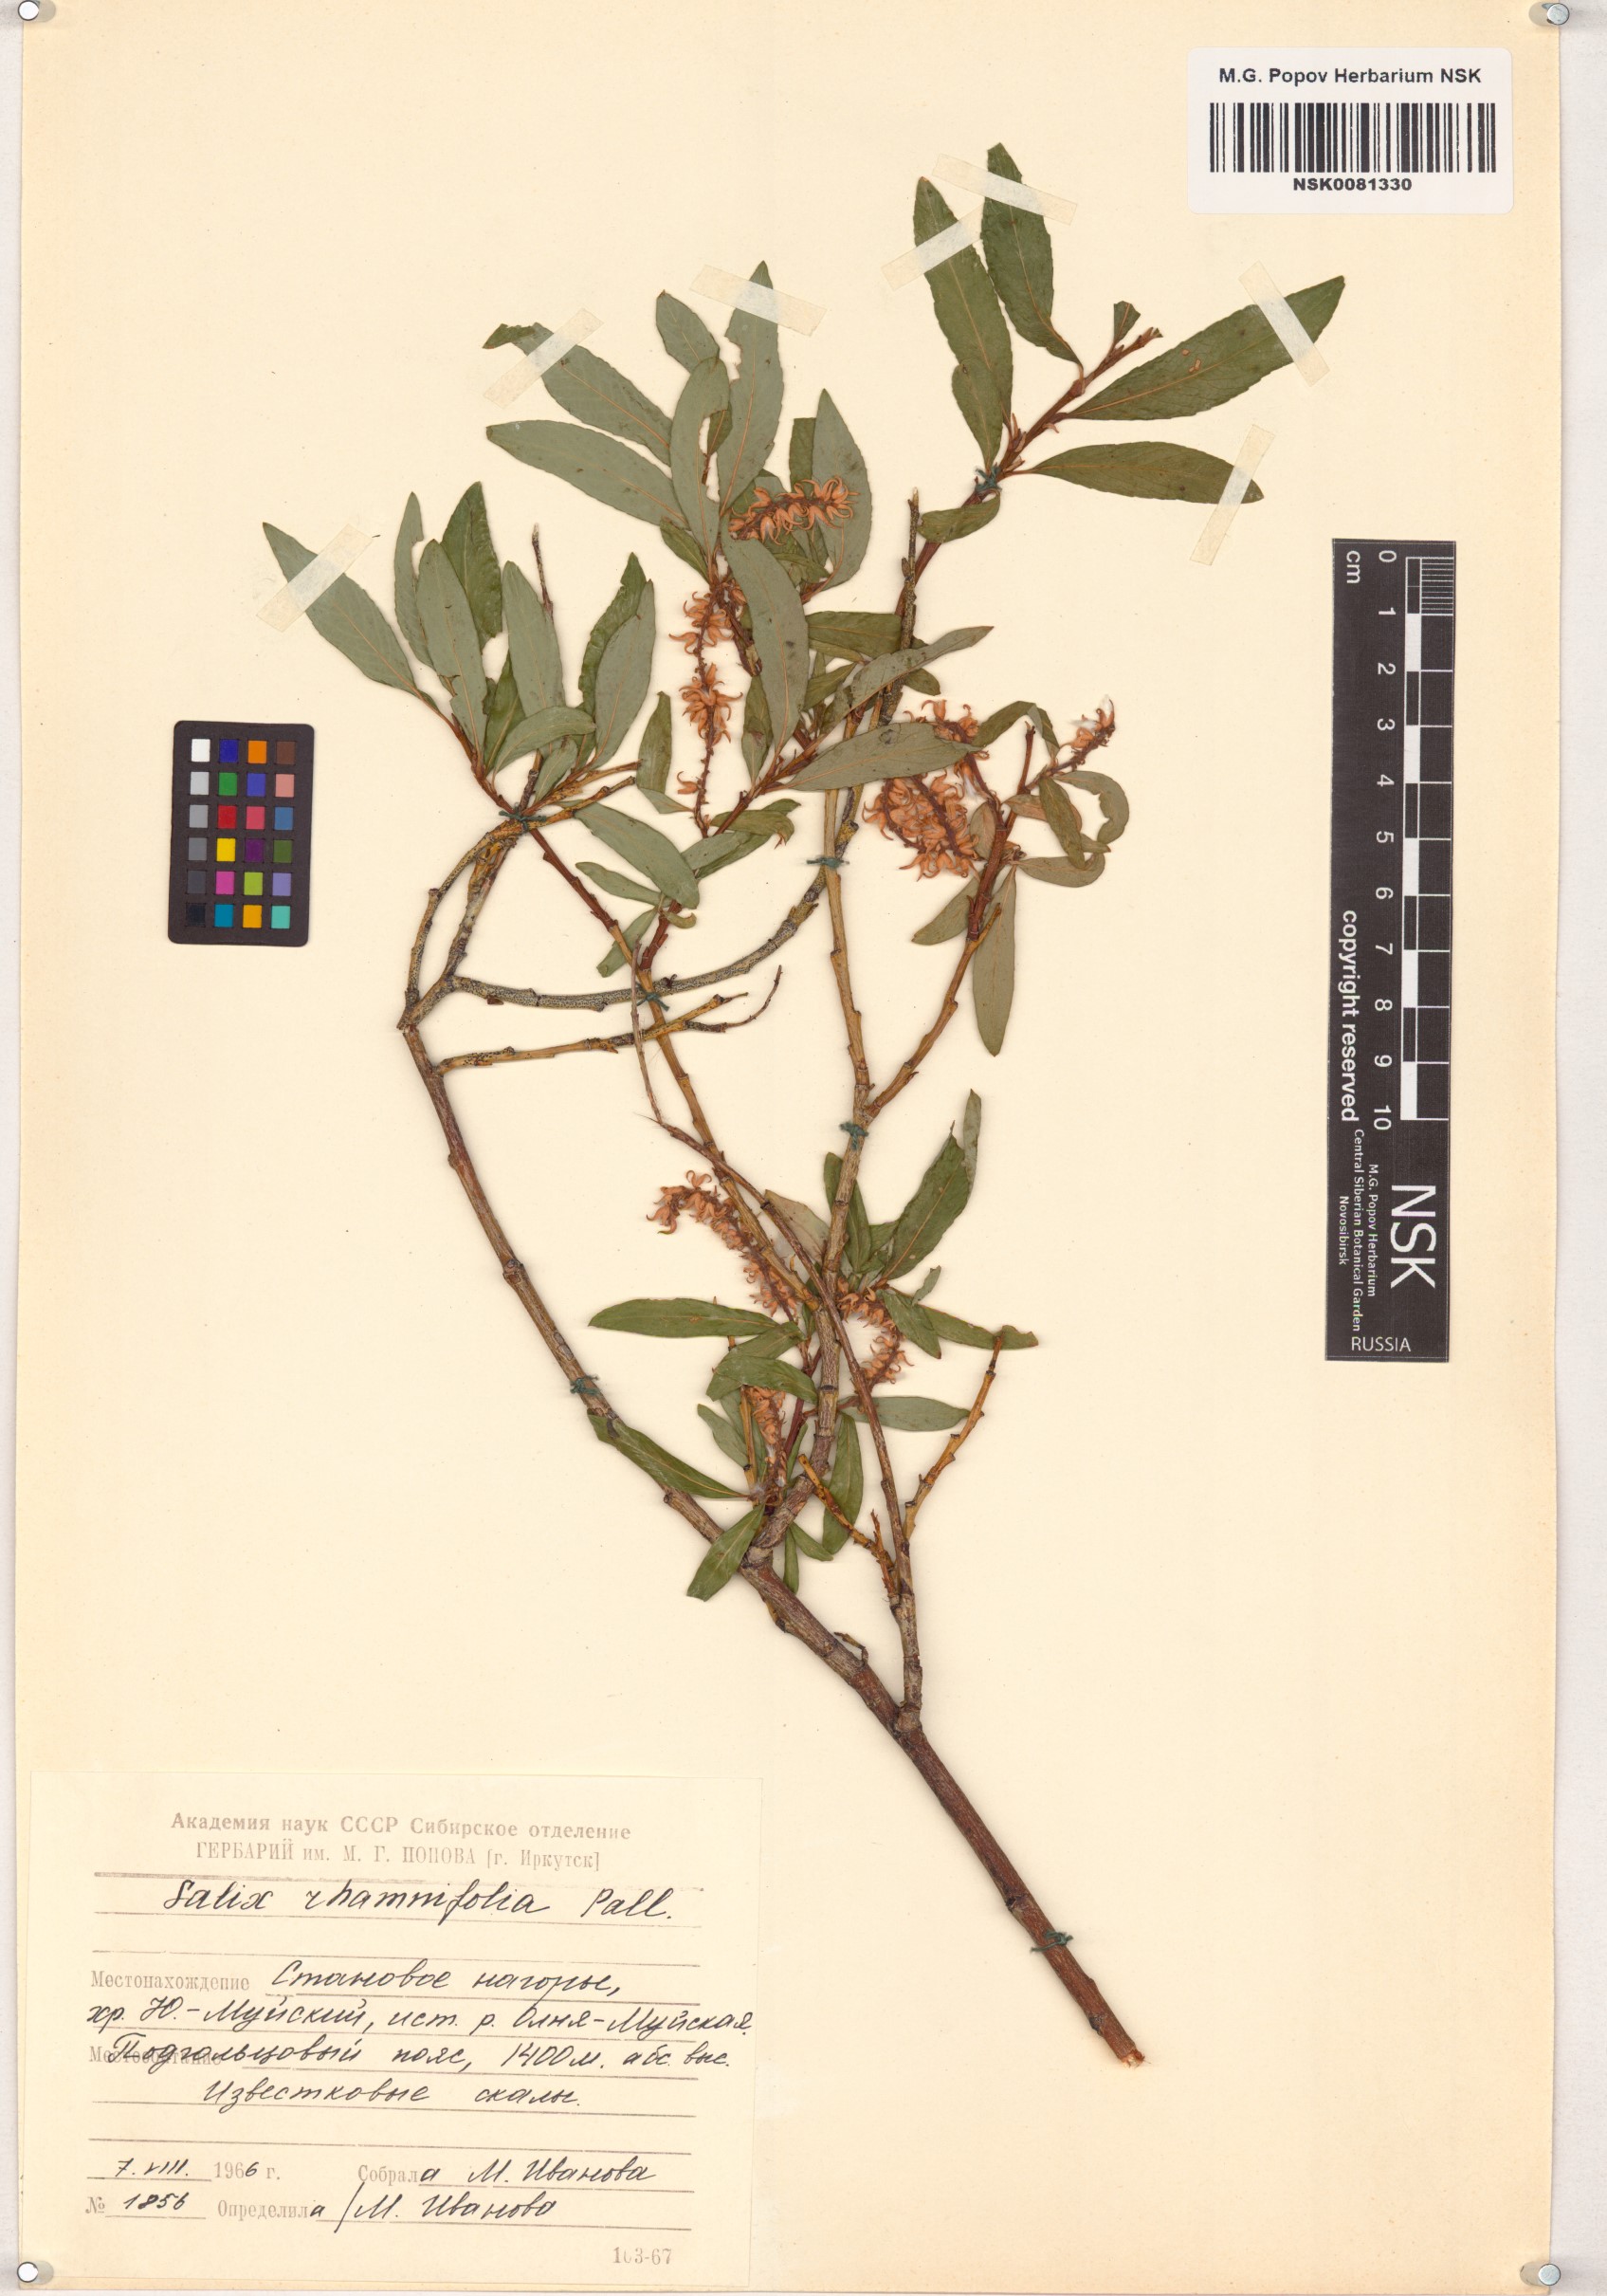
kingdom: Plantae
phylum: Tracheophyta
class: Magnoliopsida
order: Malpighiales
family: Salicaceae
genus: Salix
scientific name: Salix rhamnifolia
